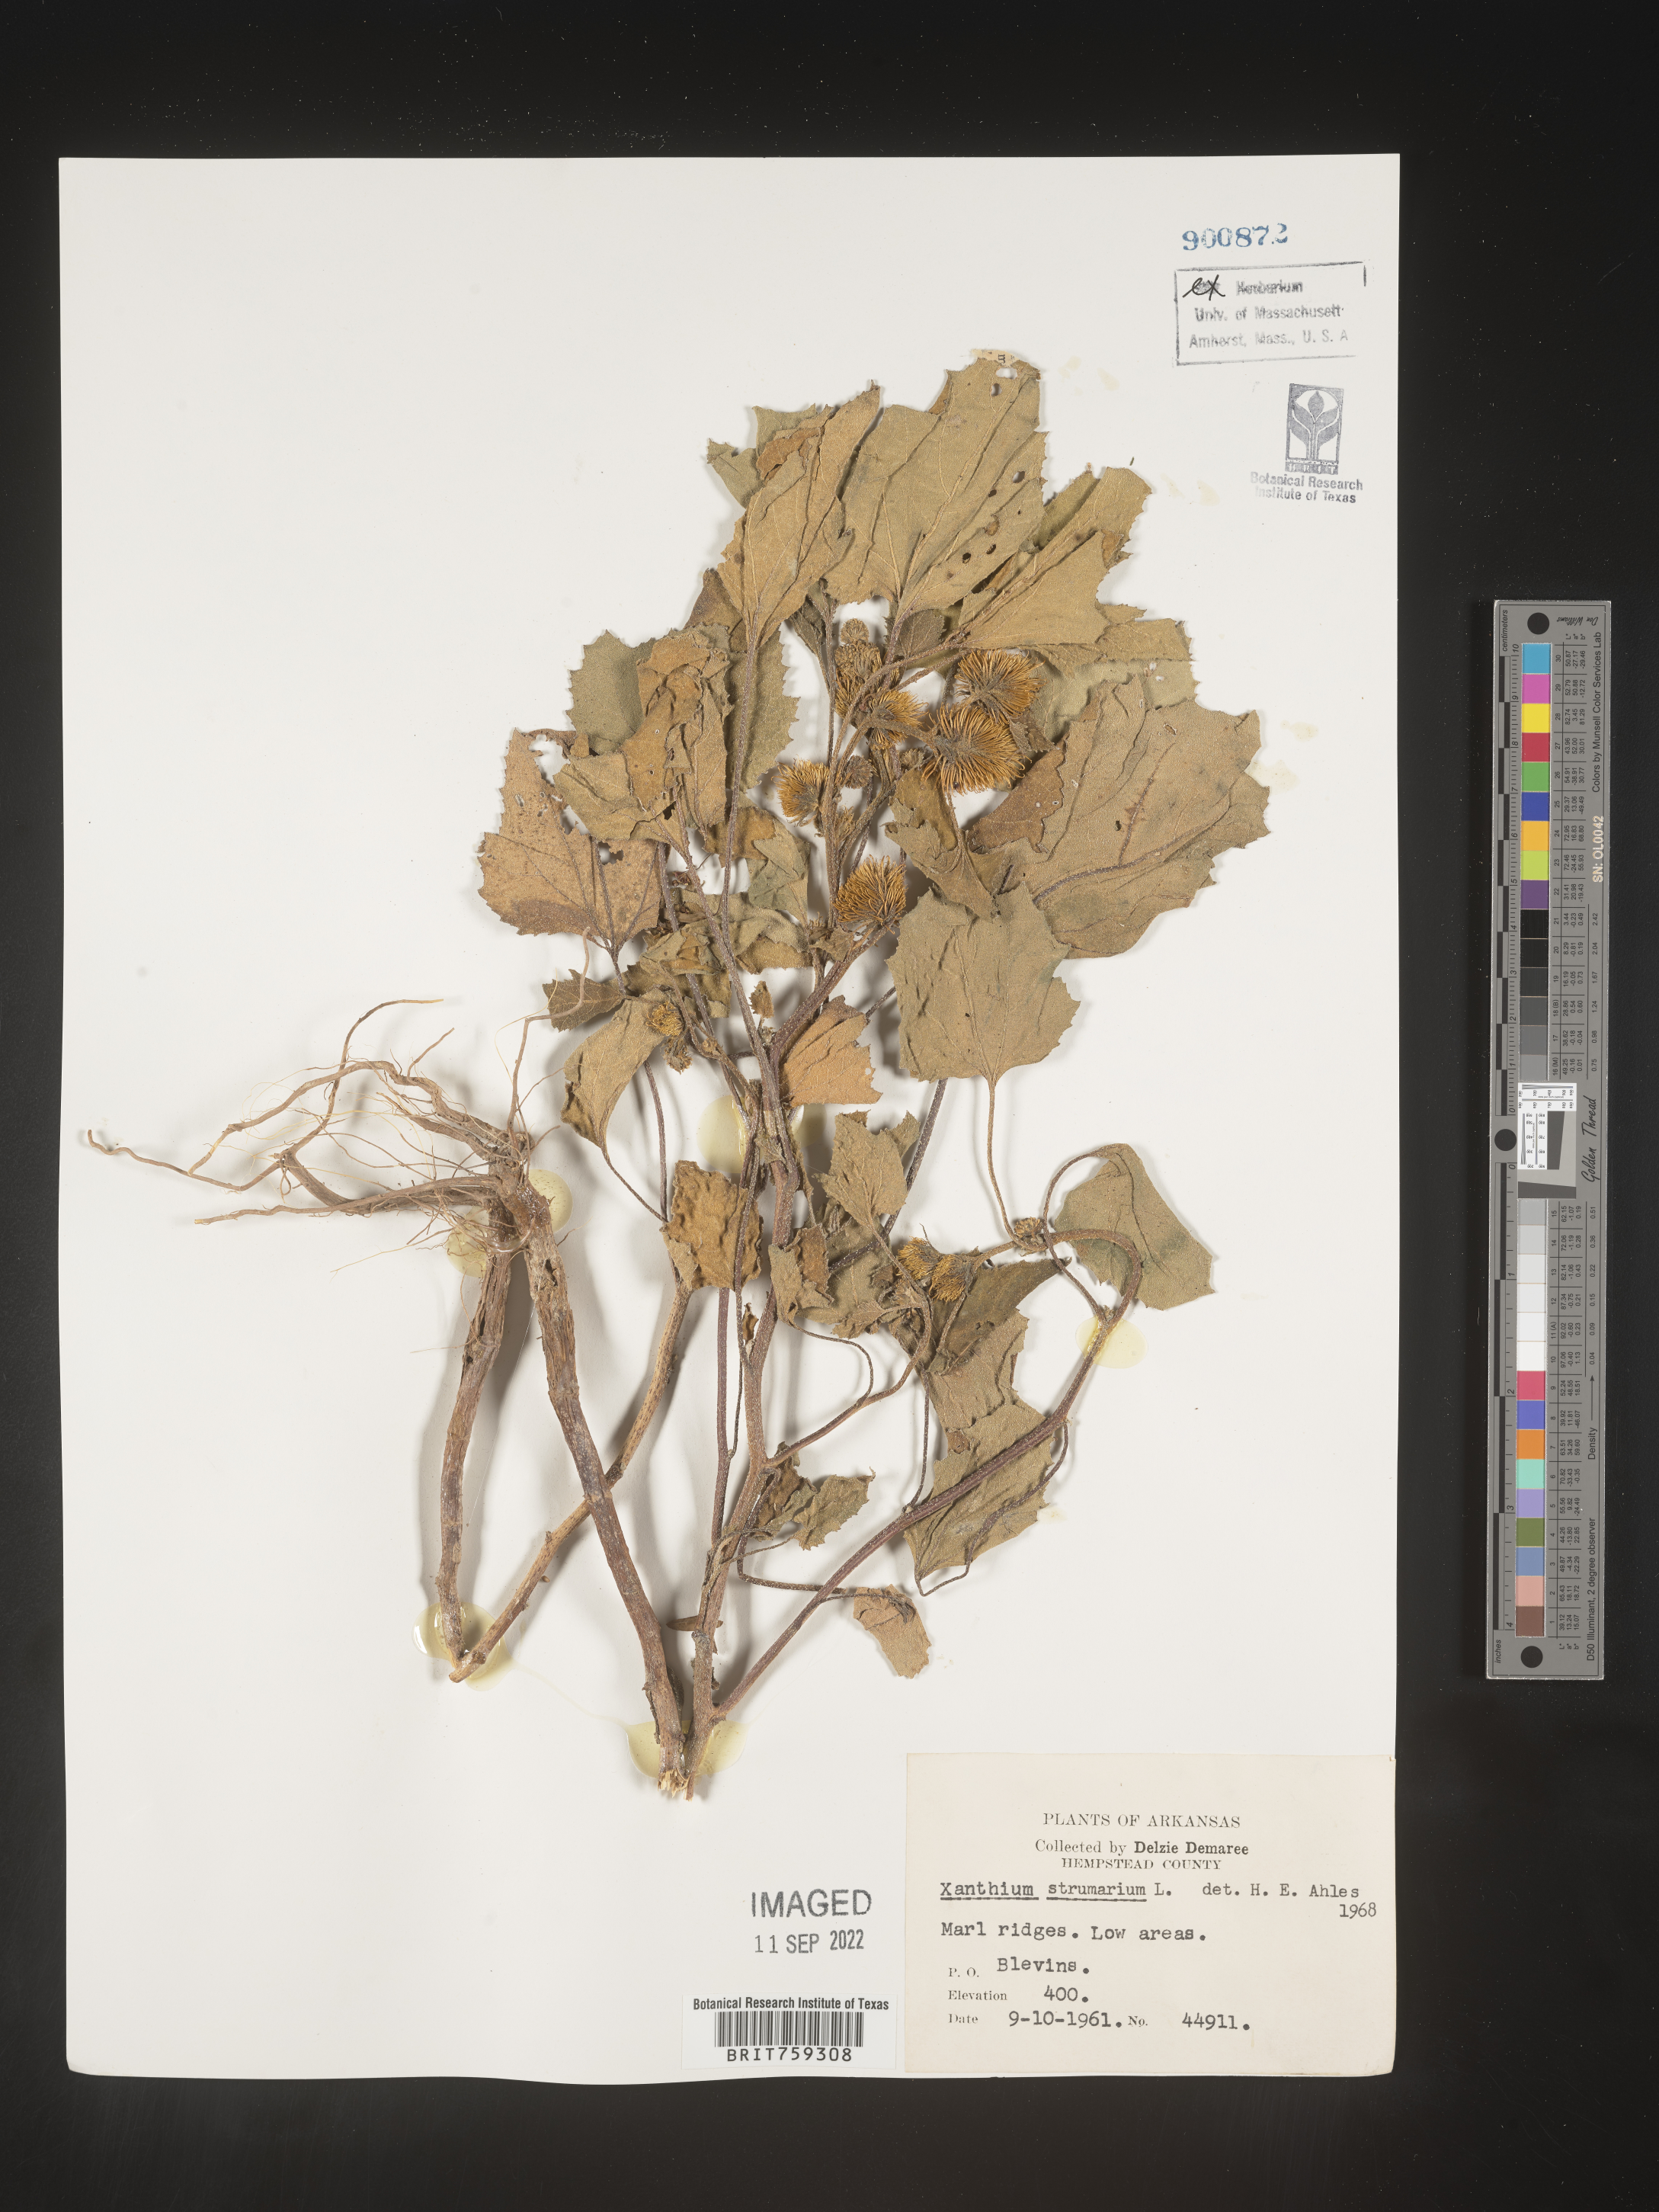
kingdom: Plantae
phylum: Tracheophyta
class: Magnoliopsida
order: Asterales
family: Asteraceae
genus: Xanthium
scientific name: Xanthium orientale
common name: Californian burr
